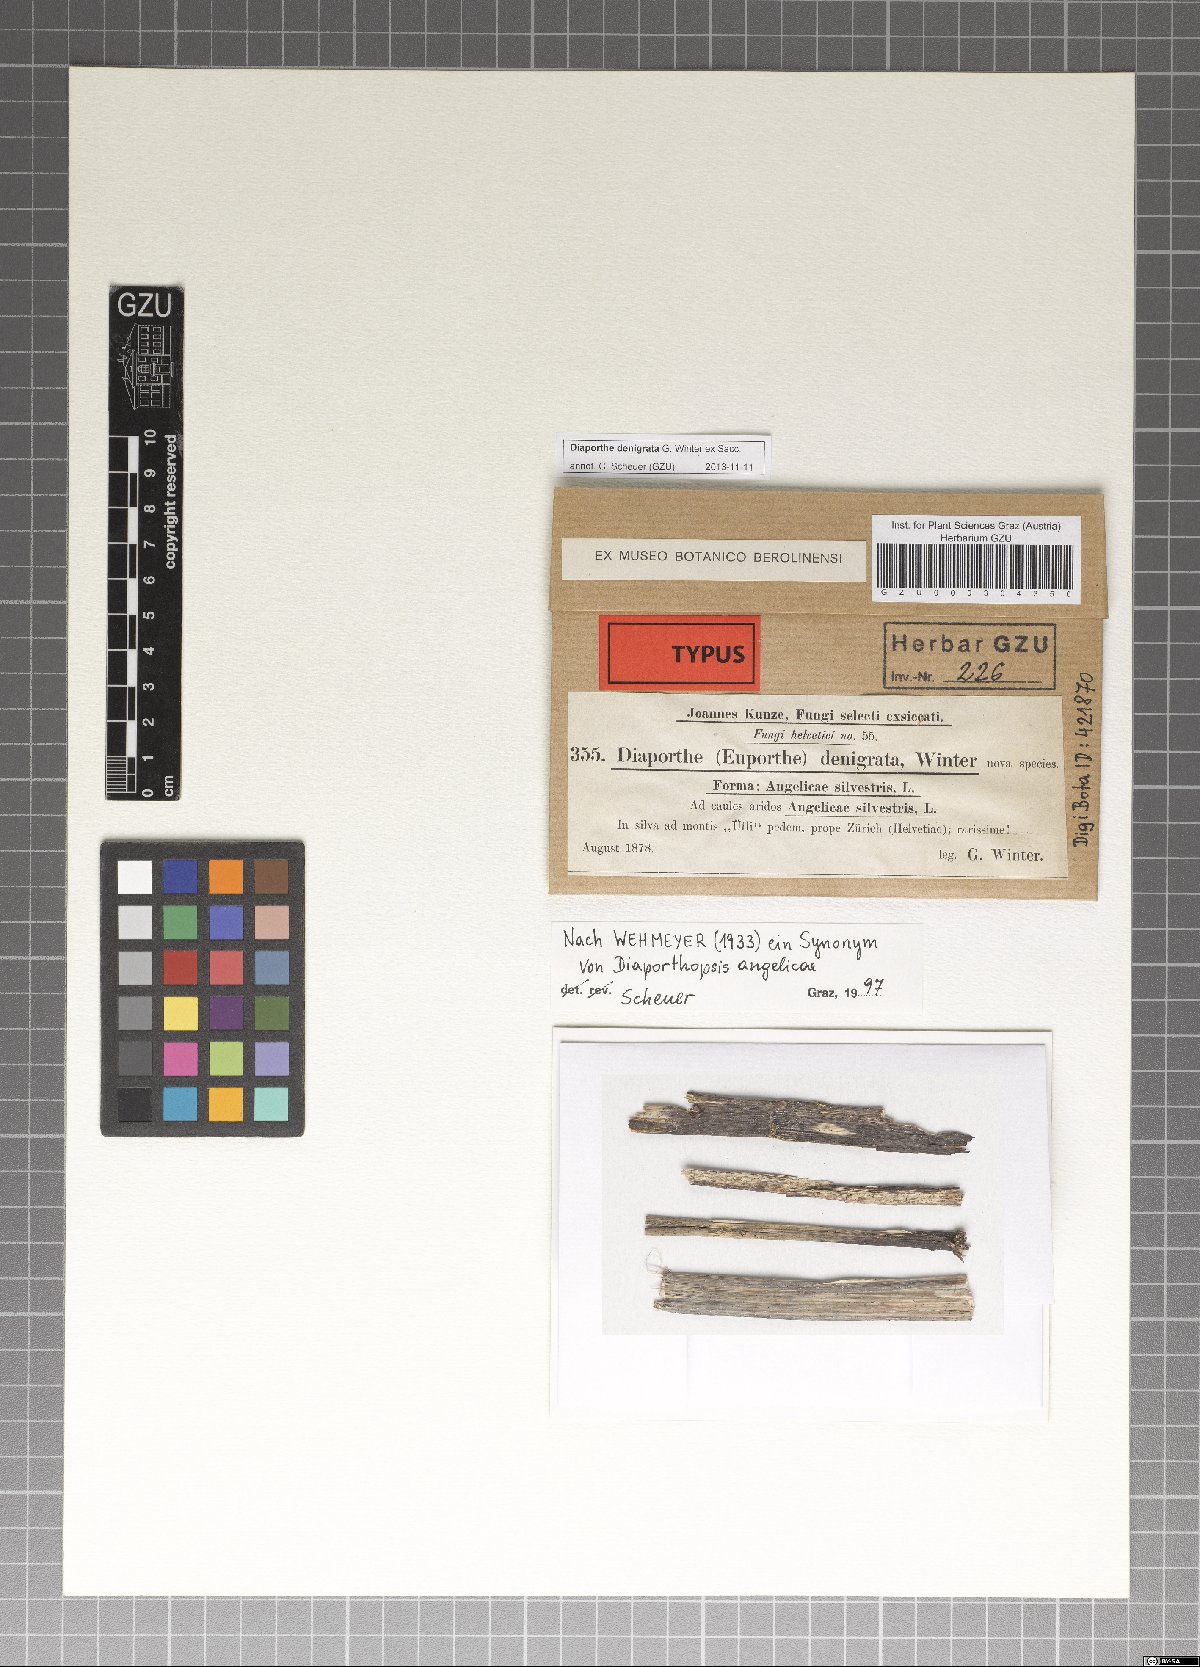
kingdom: Fungi
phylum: Ascomycota
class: Sordariomycetes
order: Diaporthales
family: Valsaceae
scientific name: Valsaceae
